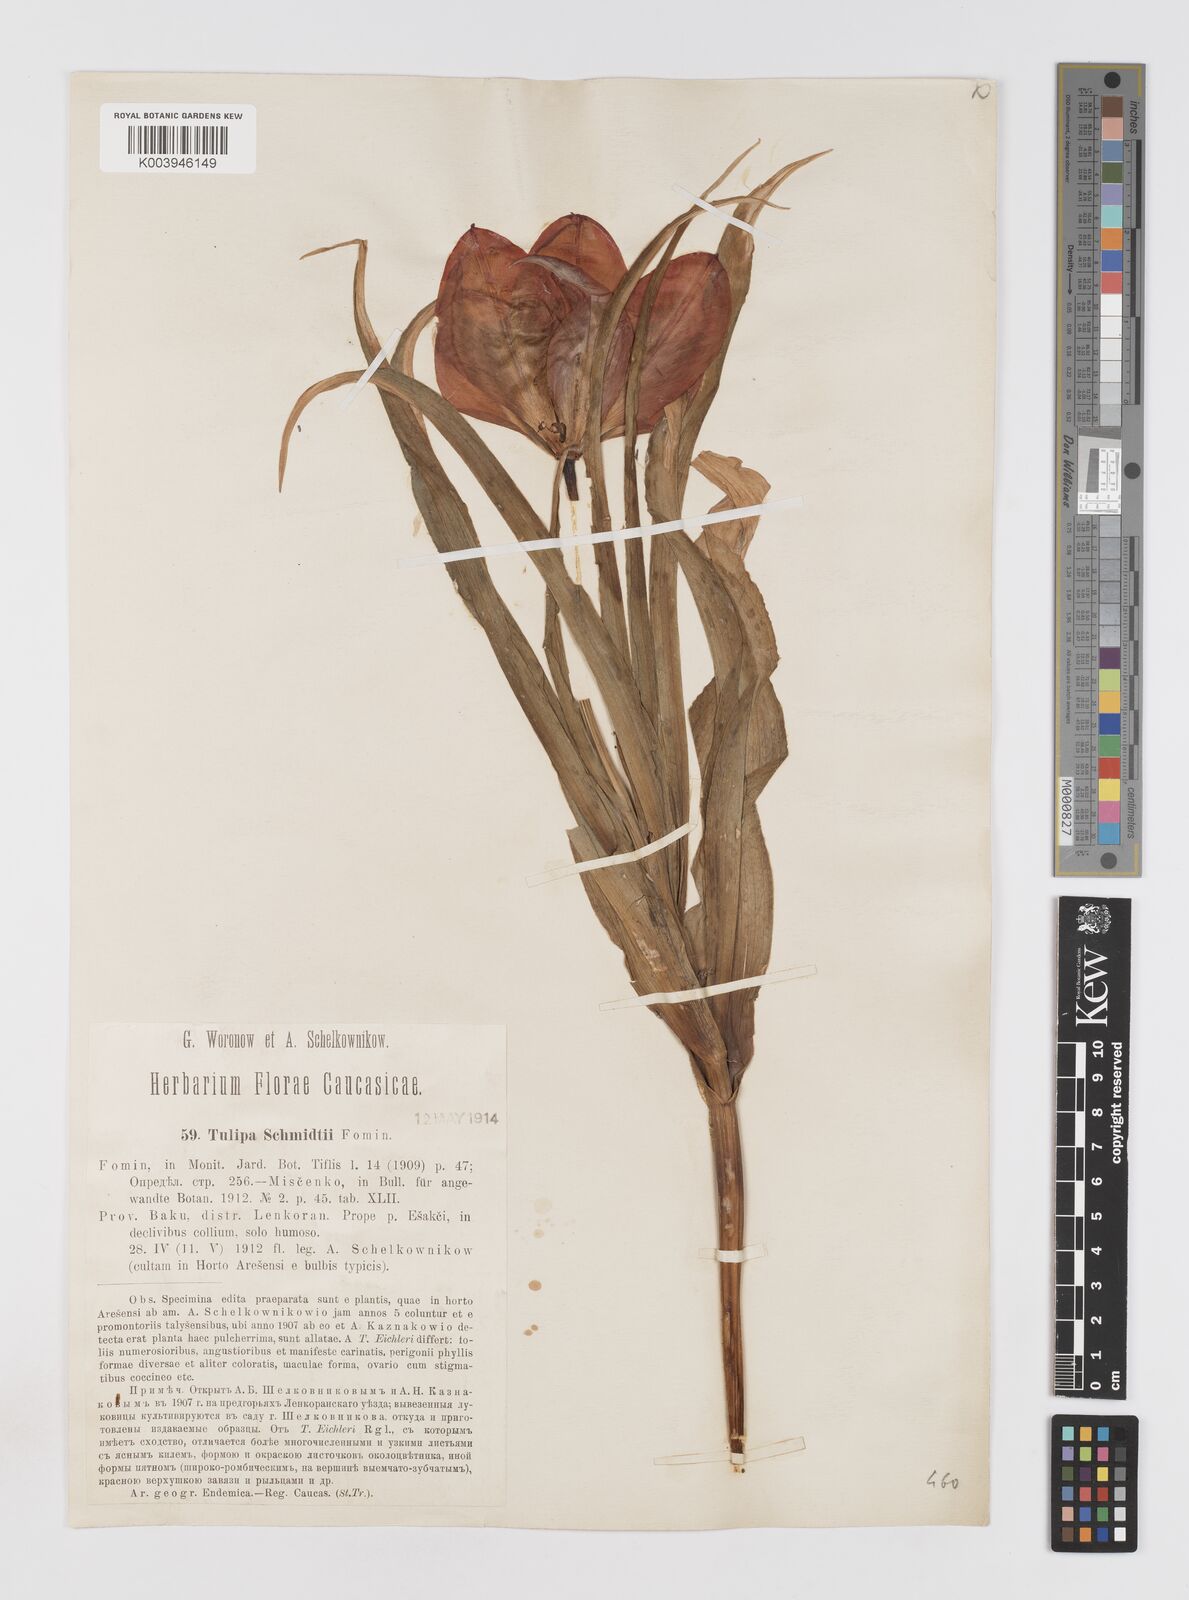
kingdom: Plantae
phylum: Tracheophyta
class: Liliopsida
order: Liliales
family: Liliaceae
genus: Tulipa
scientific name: Tulipa schmidtii
